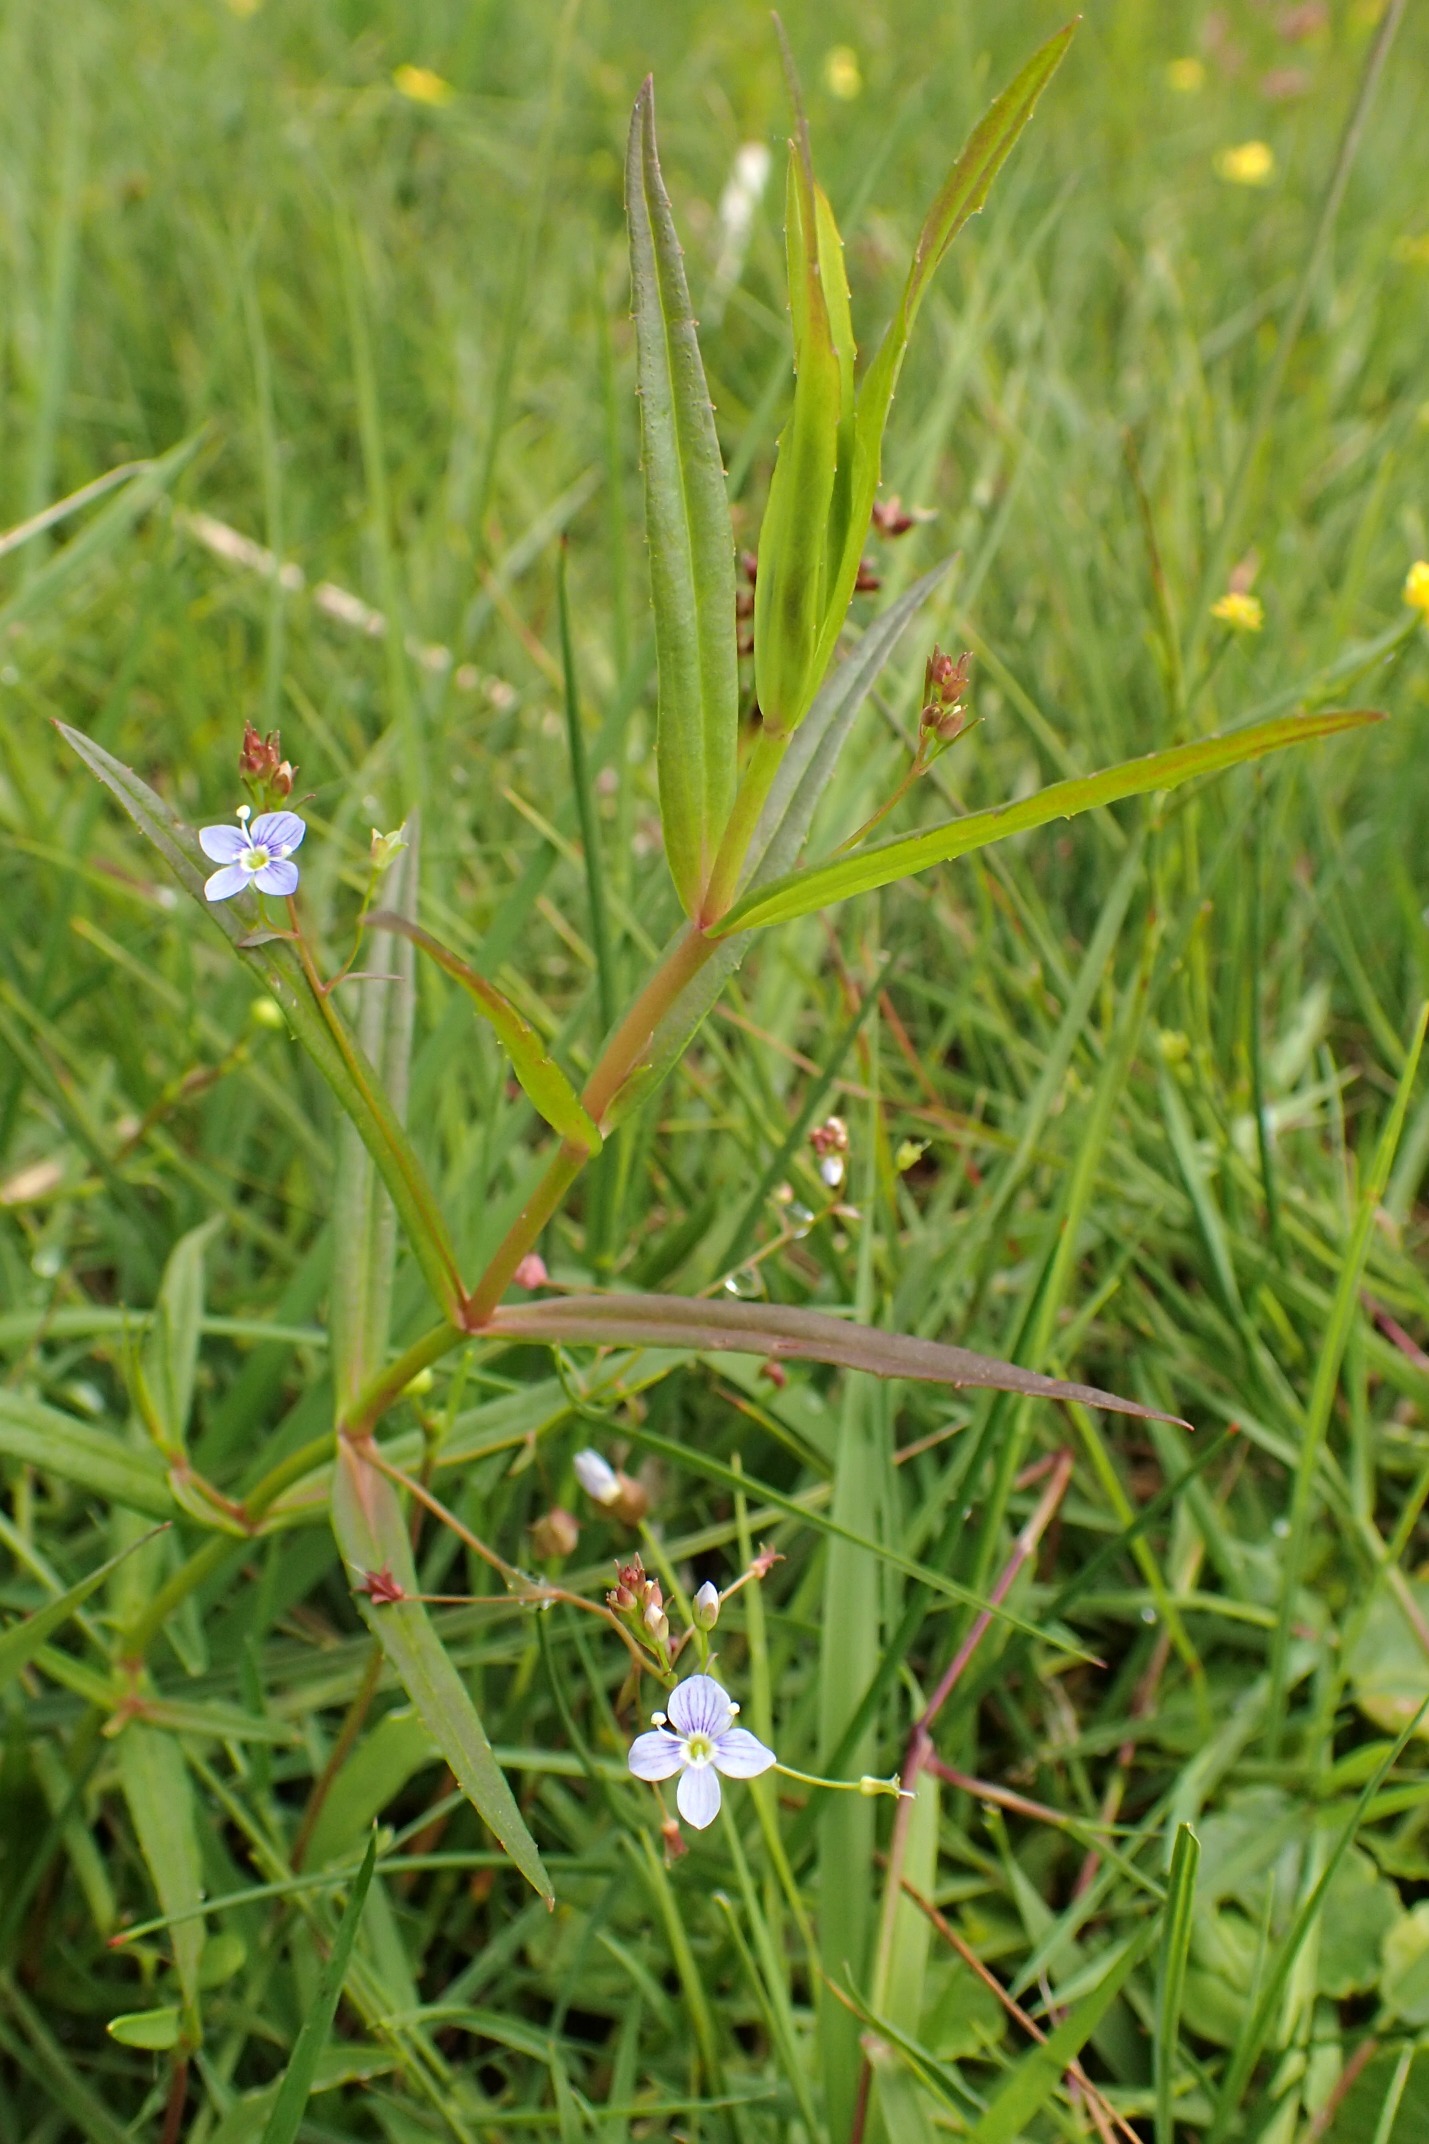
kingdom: Plantae
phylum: Tracheophyta
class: Magnoliopsida
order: Lamiales
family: Plantaginaceae
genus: Veronica
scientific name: Veronica scutellata
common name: Smalbladet ærenpris
